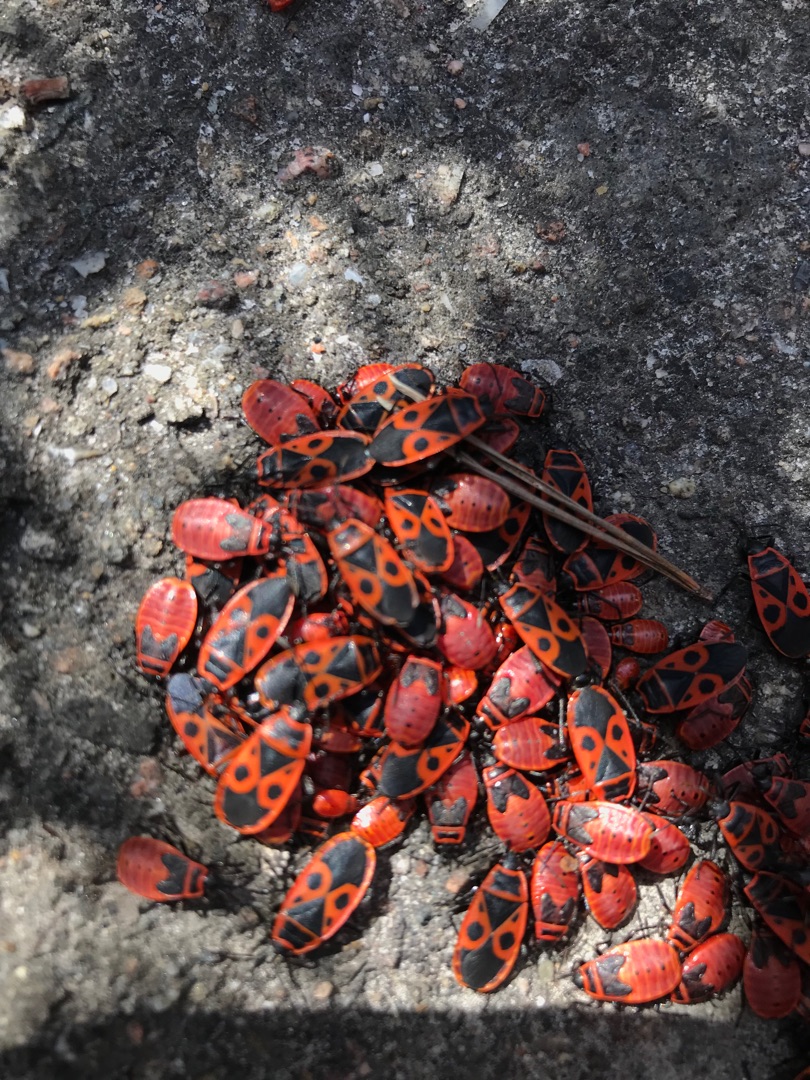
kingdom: Animalia
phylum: Arthropoda
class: Insecta
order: Hemiptera
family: Pyrrhocoridae
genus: Pyrrhocoris
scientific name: Pyrrhocoris apterus
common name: Ildtæge
